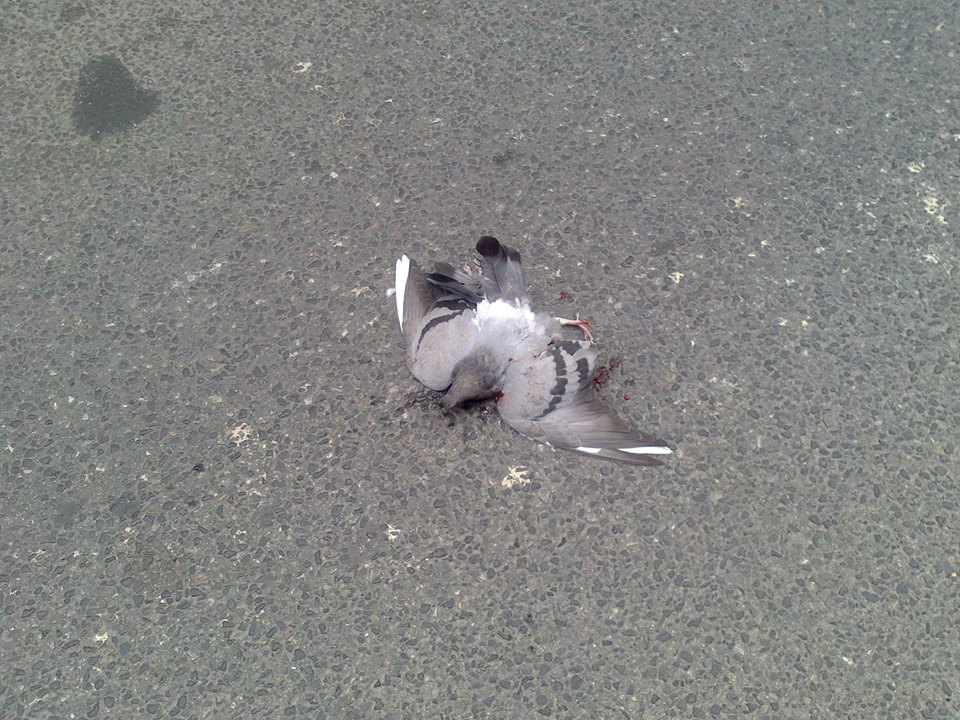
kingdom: Animalia
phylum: Chordata
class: Aves
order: Columbiformes
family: Columbidae
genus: Columba
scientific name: Columba livia
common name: Rock pigeon
